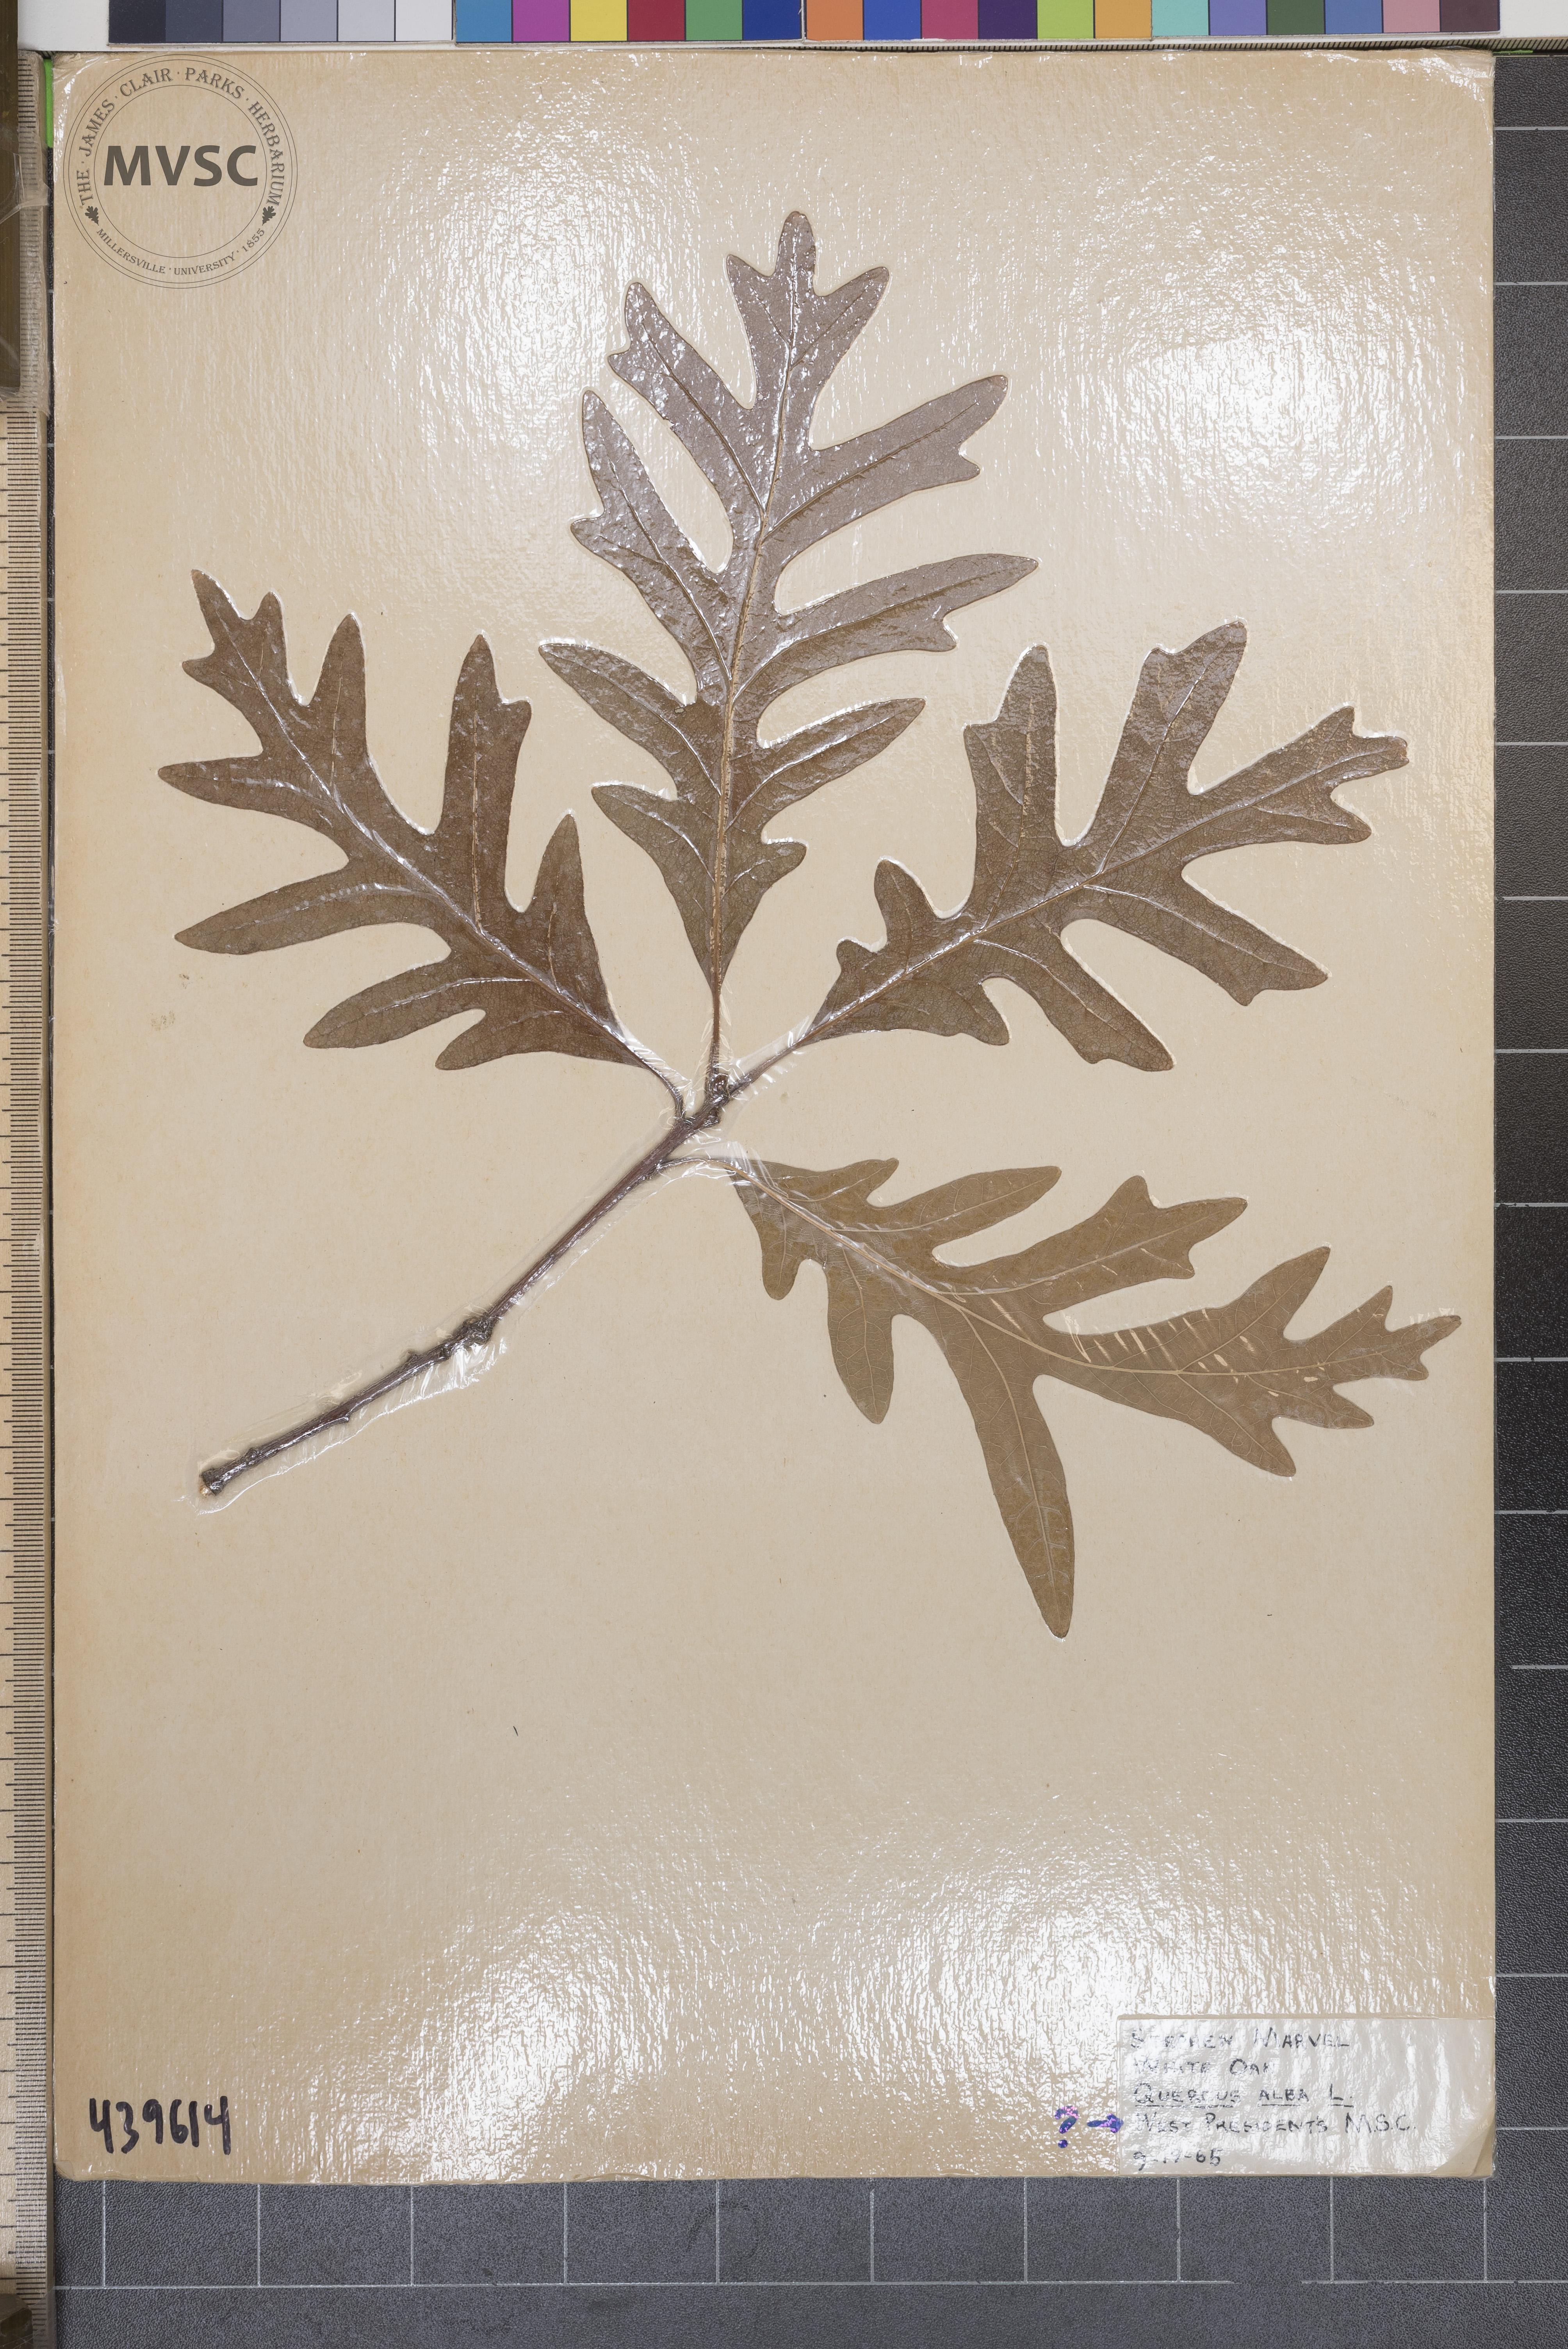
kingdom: Plantae
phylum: Tracheophyta
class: Magnoliopsida
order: Fagales
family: Fagaceae
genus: Quercus
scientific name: Quercus alba
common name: White oak
